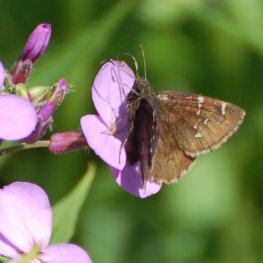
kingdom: Animalia
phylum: Arthropoda
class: Insecta
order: Lepidoptera
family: Hesperiidae
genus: Autochton
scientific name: Autochton
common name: Northern Cloudywing
